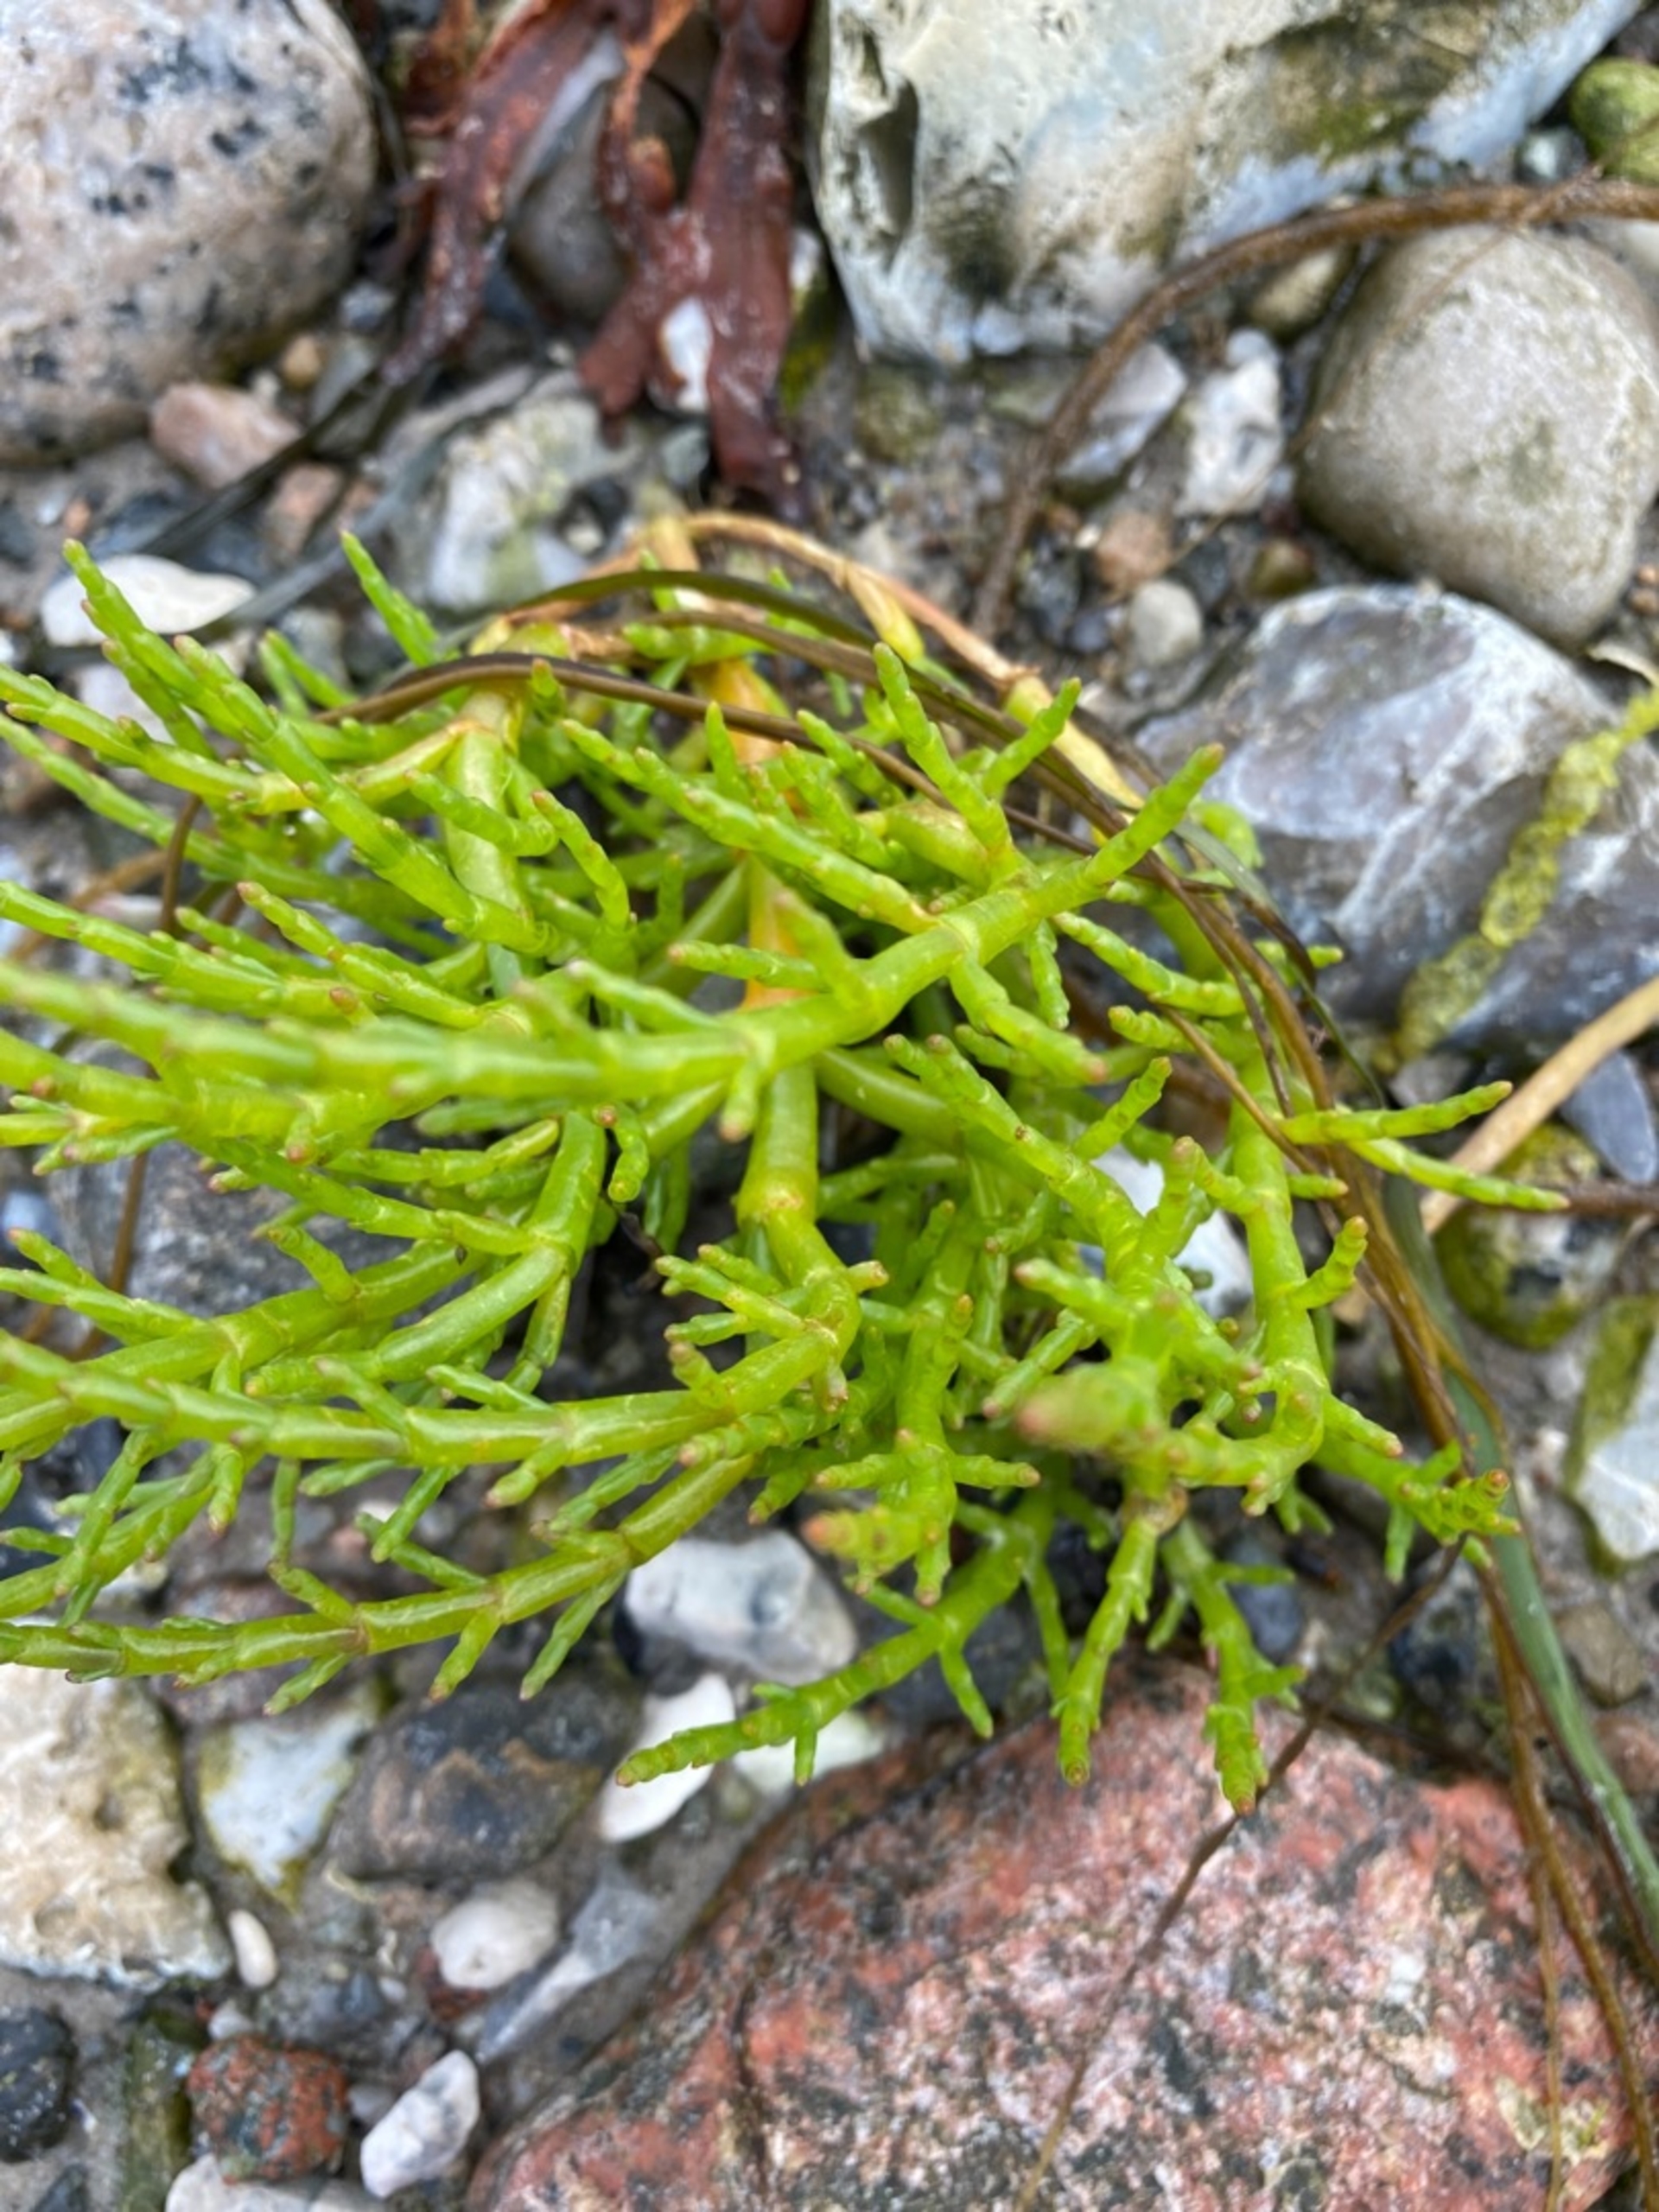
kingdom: Plantae
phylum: Tracheophyta
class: Magnoliopsida
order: Caryophyllales
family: Amaranthaceae
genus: Salicornia
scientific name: Salicornia europaea
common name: Almindelig salturt
